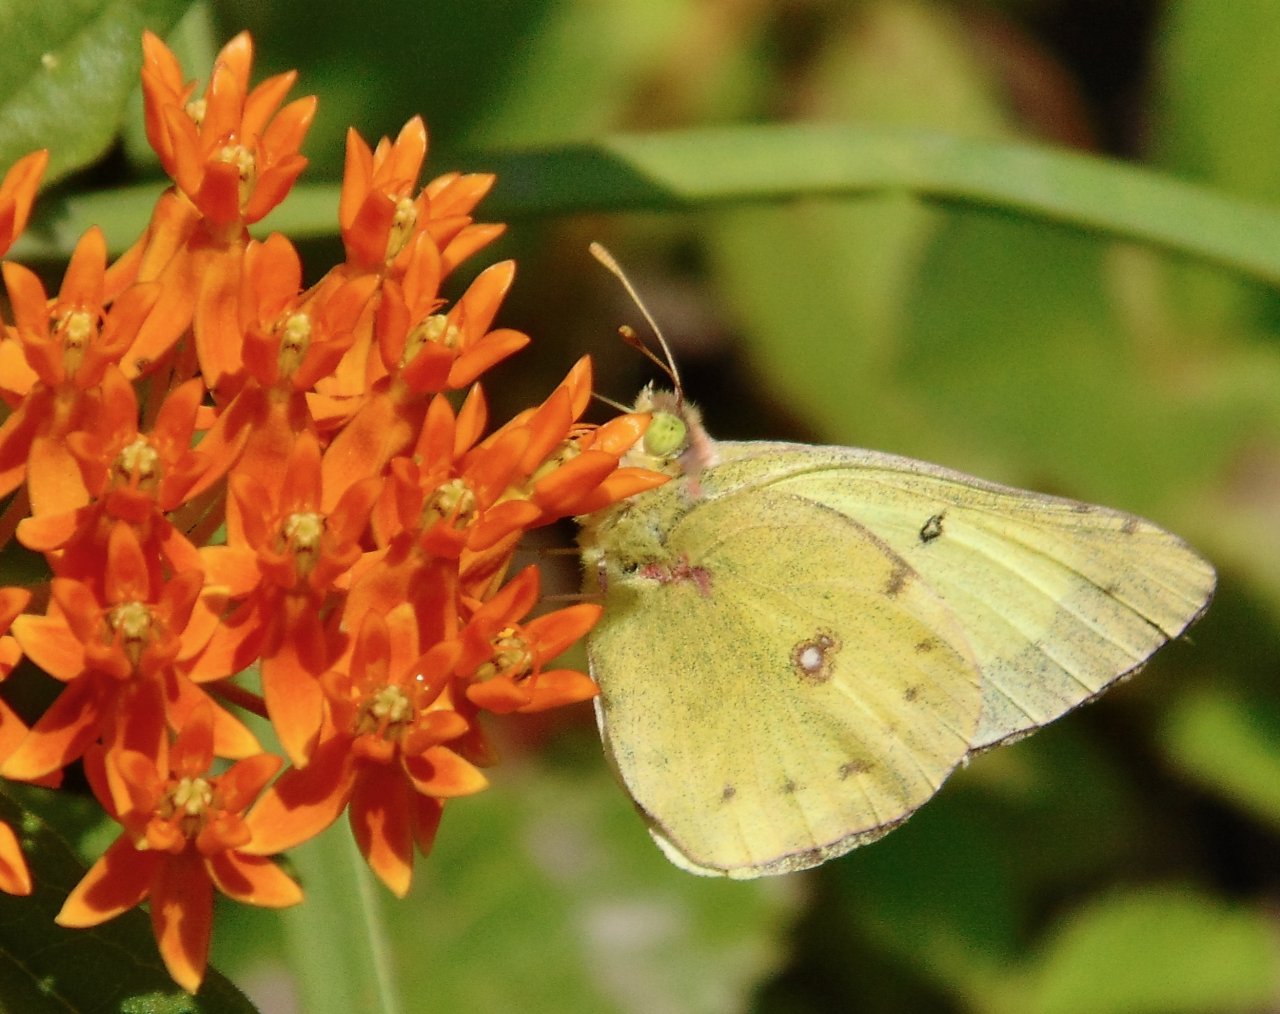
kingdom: Animalia
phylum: Arthropoda
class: Insecta
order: Lepidoptera
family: Pieridae
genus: Colias
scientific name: Colias philodice
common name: Clouded Sulphur
